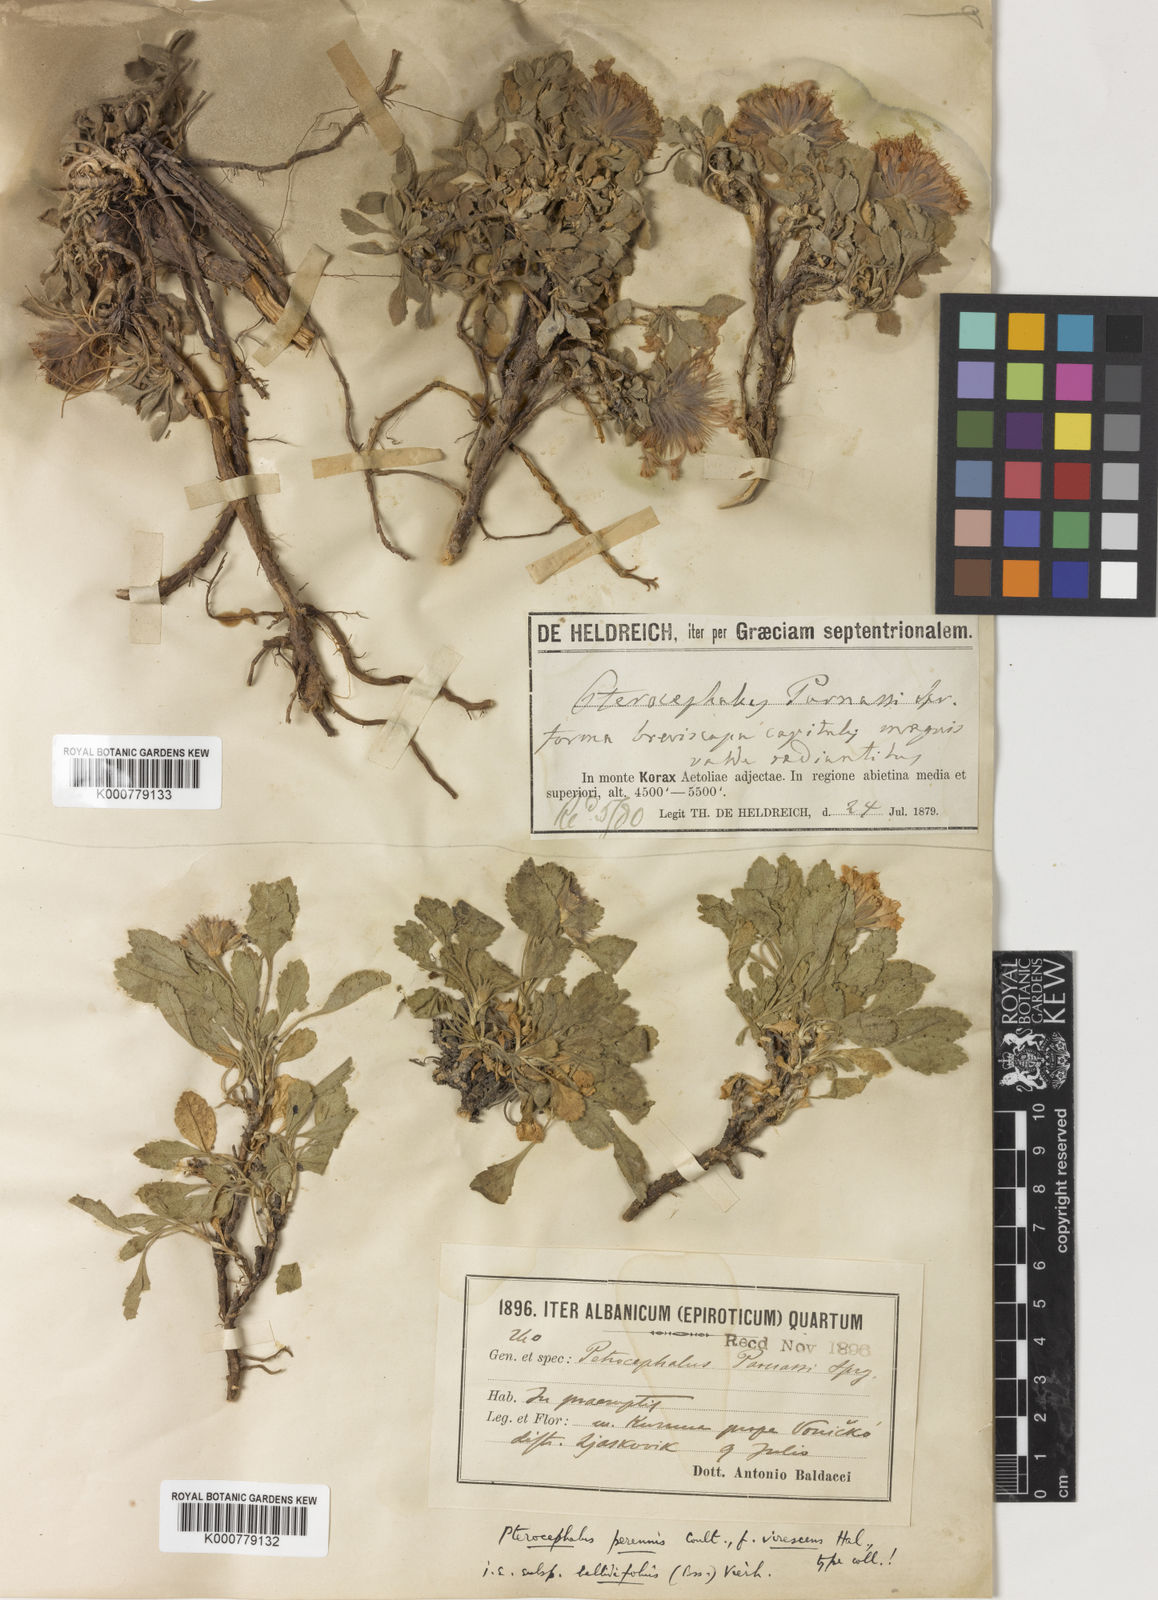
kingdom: Plantae
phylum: Tracheophyta
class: Magnoliopsida
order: Dipsacales
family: Caprifoliaceae
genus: Pterocephalus
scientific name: Pterocephalus
